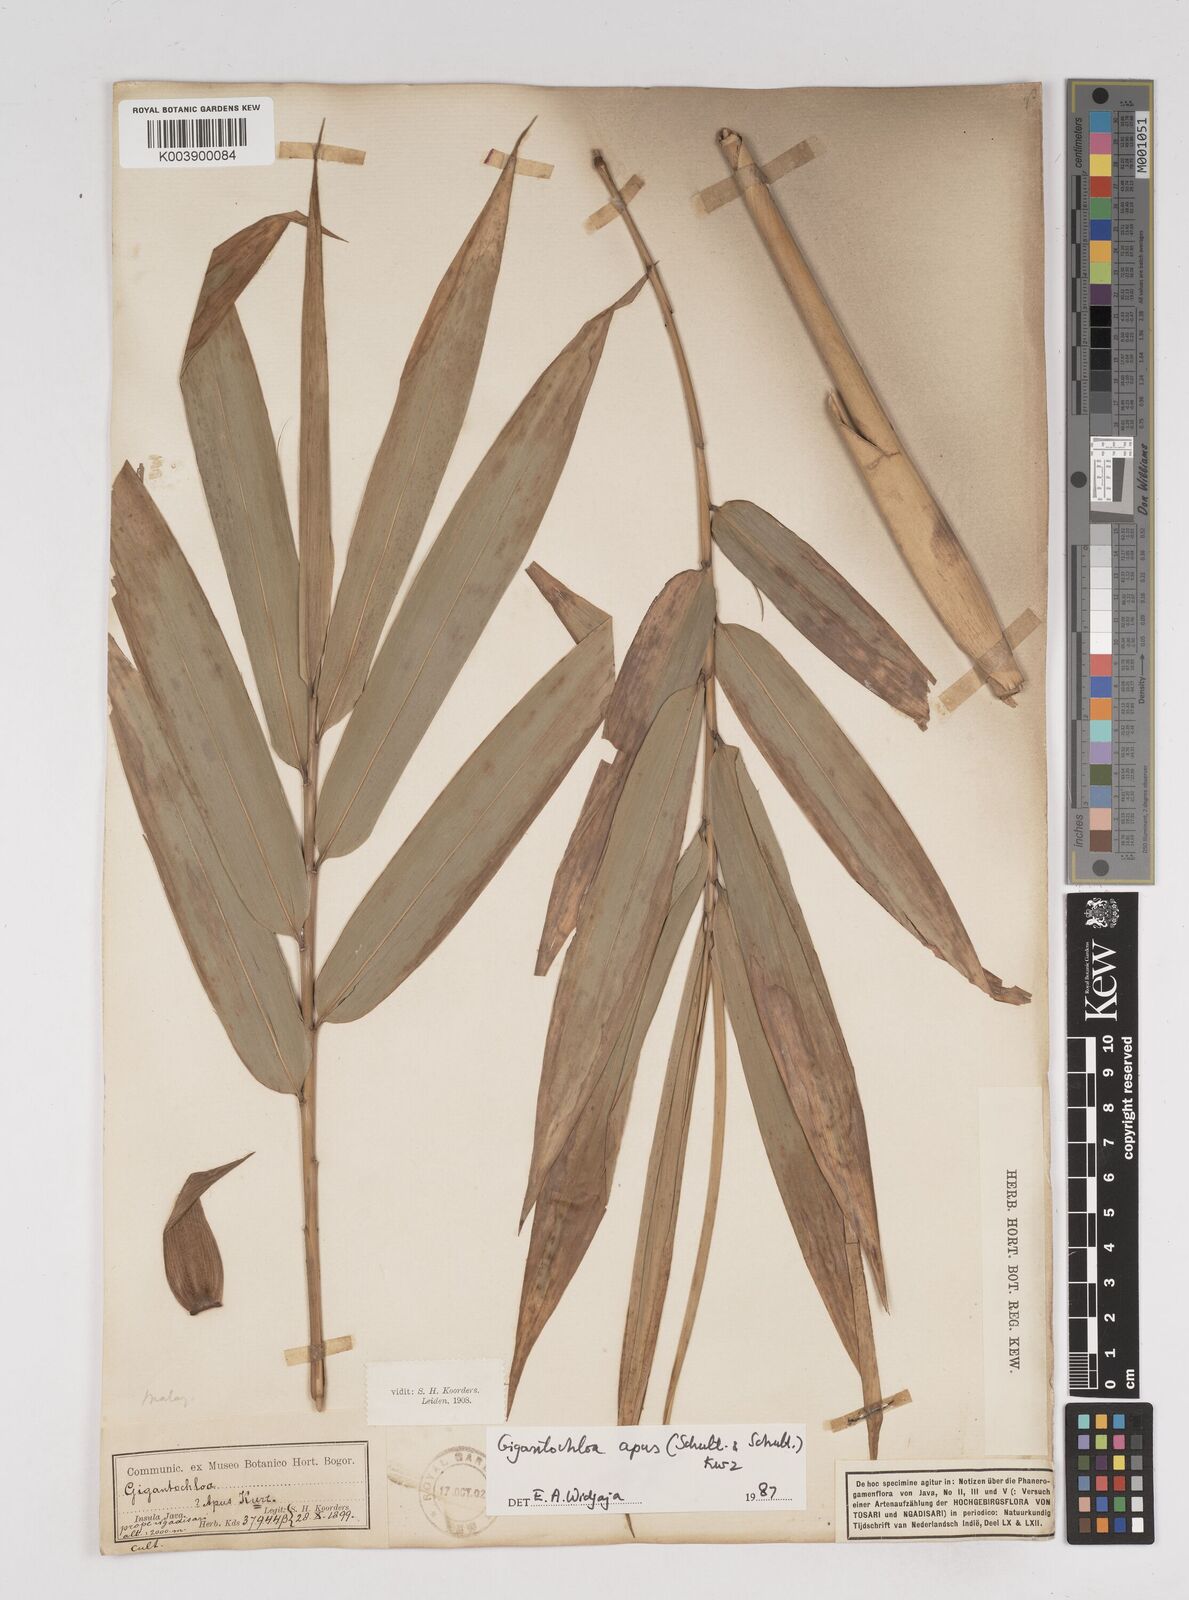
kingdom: Plantae
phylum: Tracheophyta
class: Liliopsida
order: Poales
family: Poaceae
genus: Gigantochloa
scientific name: Gigantochloa apus
